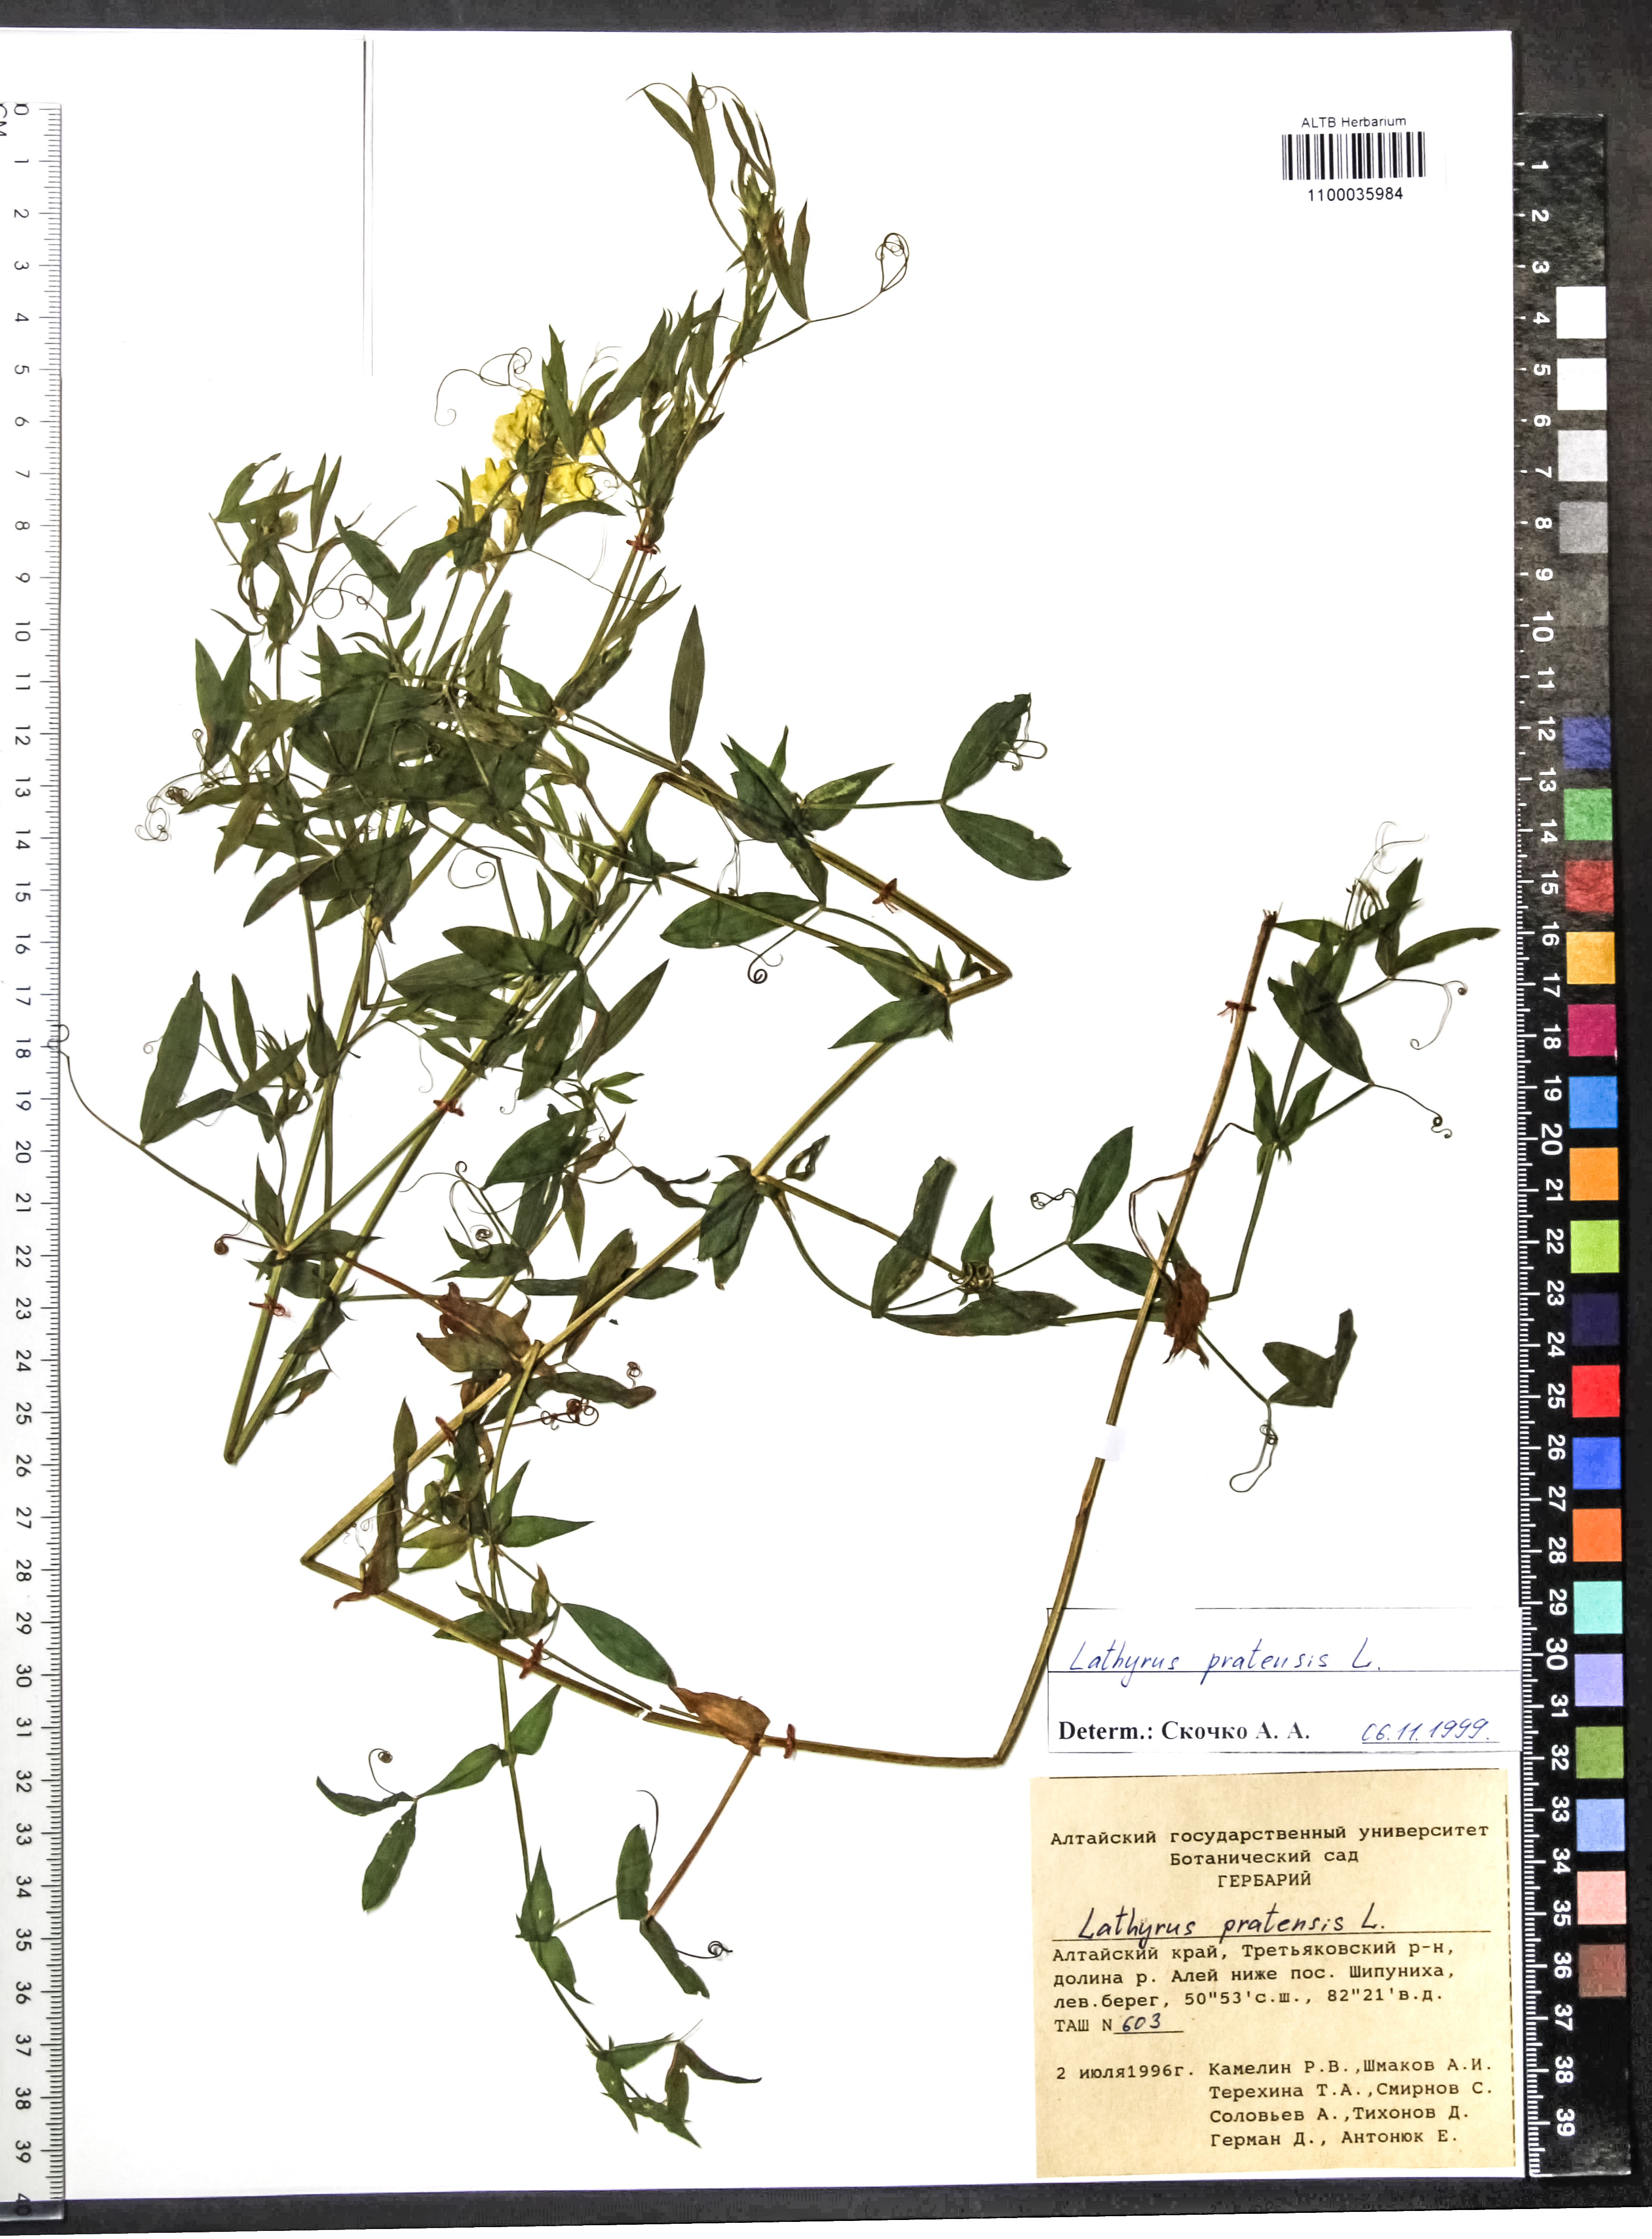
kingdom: Plantae
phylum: Tracheophyta
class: Magnoliopsida
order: Fabales
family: Fabaceae
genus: Lathyrus
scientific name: Lathyrus pratensis
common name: Meadow vetchling
